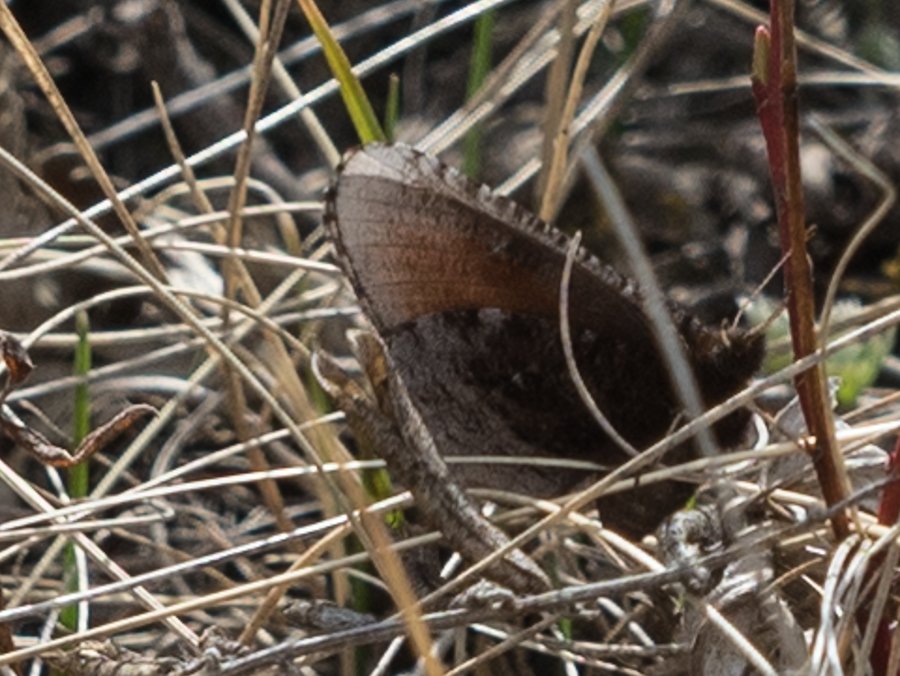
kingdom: Animalia
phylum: Arthropoda
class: Insecta
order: Lepidoptera
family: Nymphalidae
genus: Erebia
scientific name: Erebia discoidalis
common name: Red-disked Alpine
